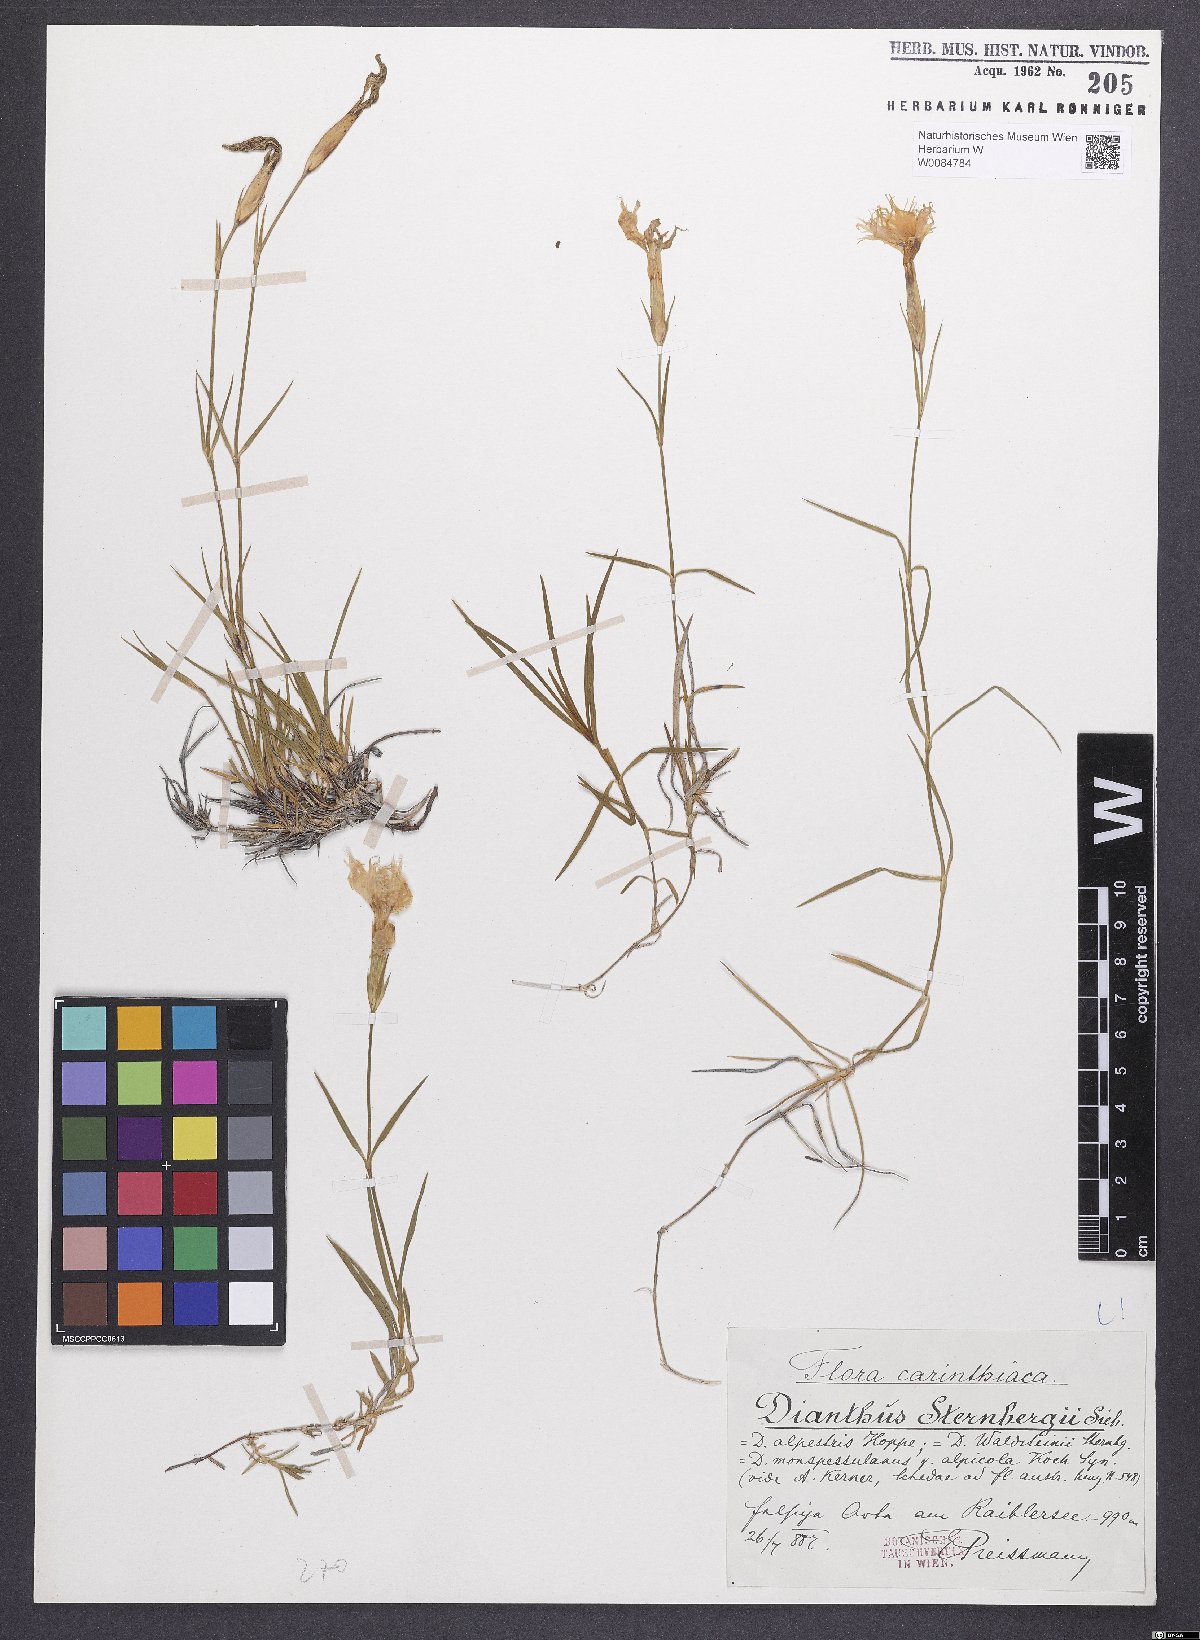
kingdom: Plantae
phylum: Tracheophyta
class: Magnoliopsida
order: Caryophyllales
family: Caryophyllaceae
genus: Dianthus
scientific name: Dianthus monspessulanus
